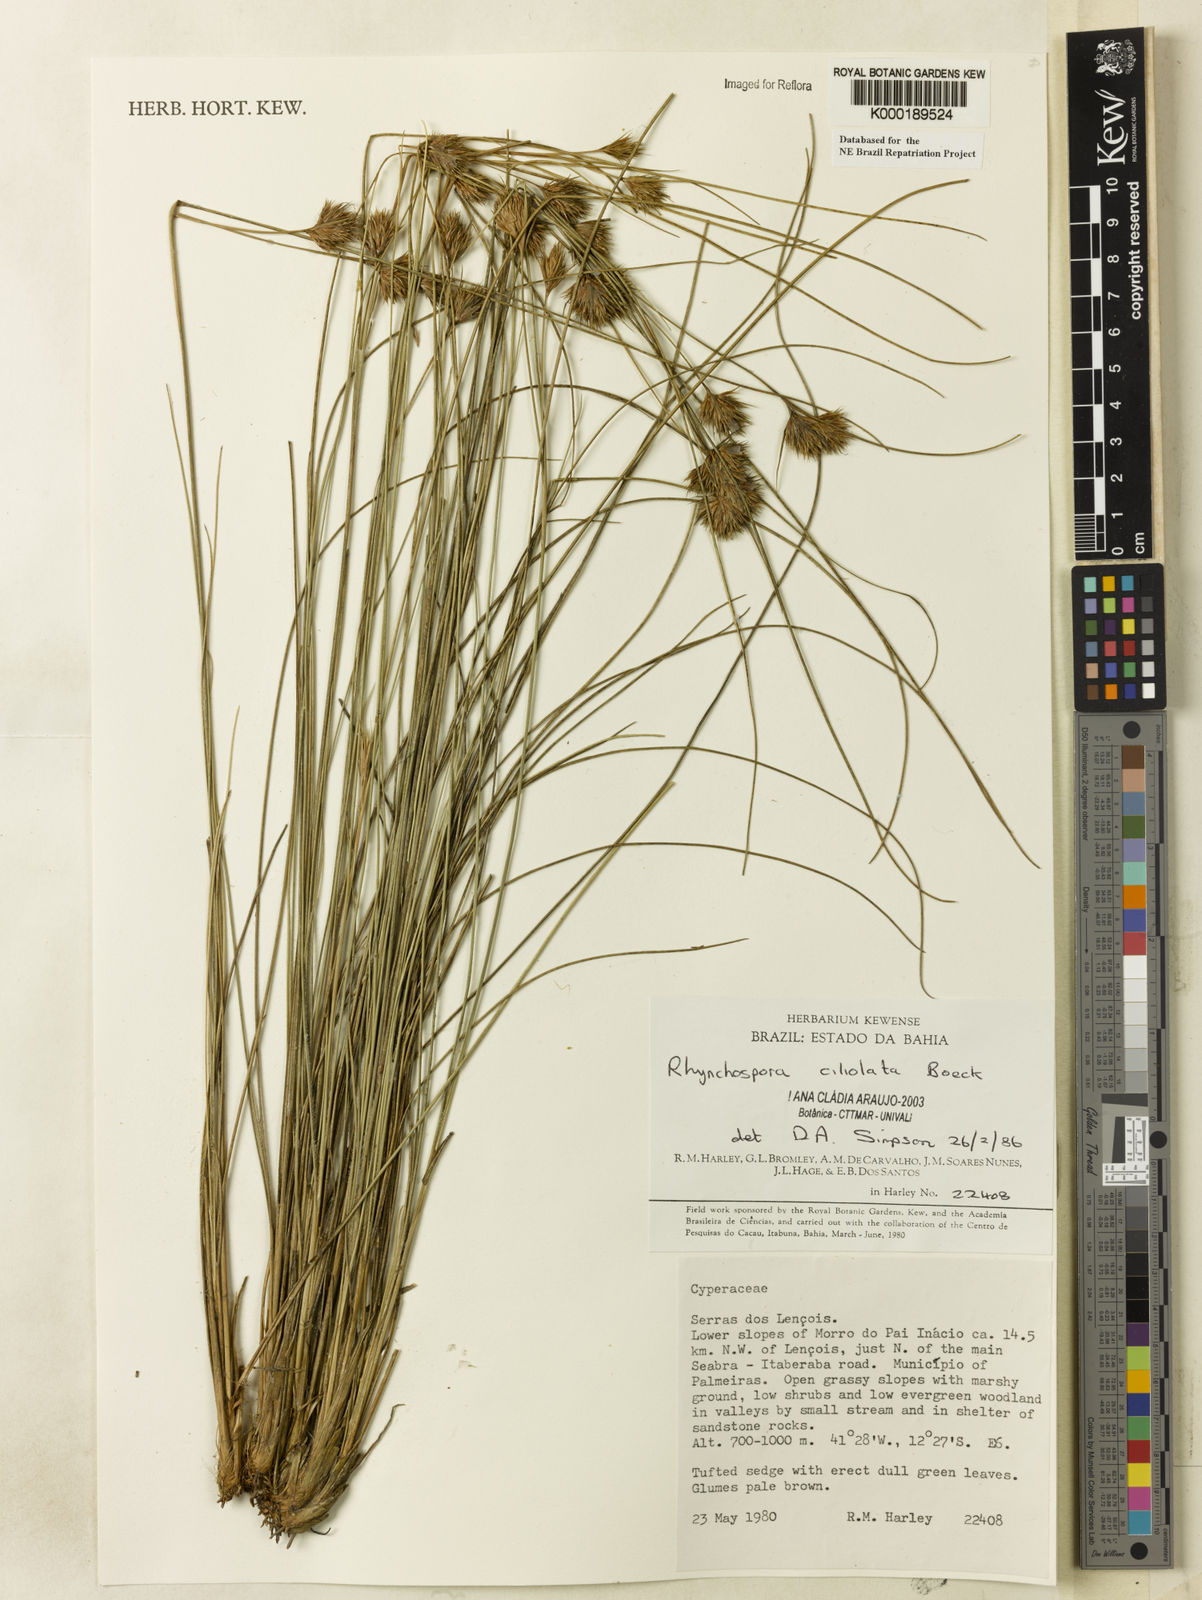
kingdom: Plantae
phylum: Tracheophyta
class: Liliopsida
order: Poales
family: Cyperaceae
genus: Rhynchospora
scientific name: Rhynchospora ciliolata
